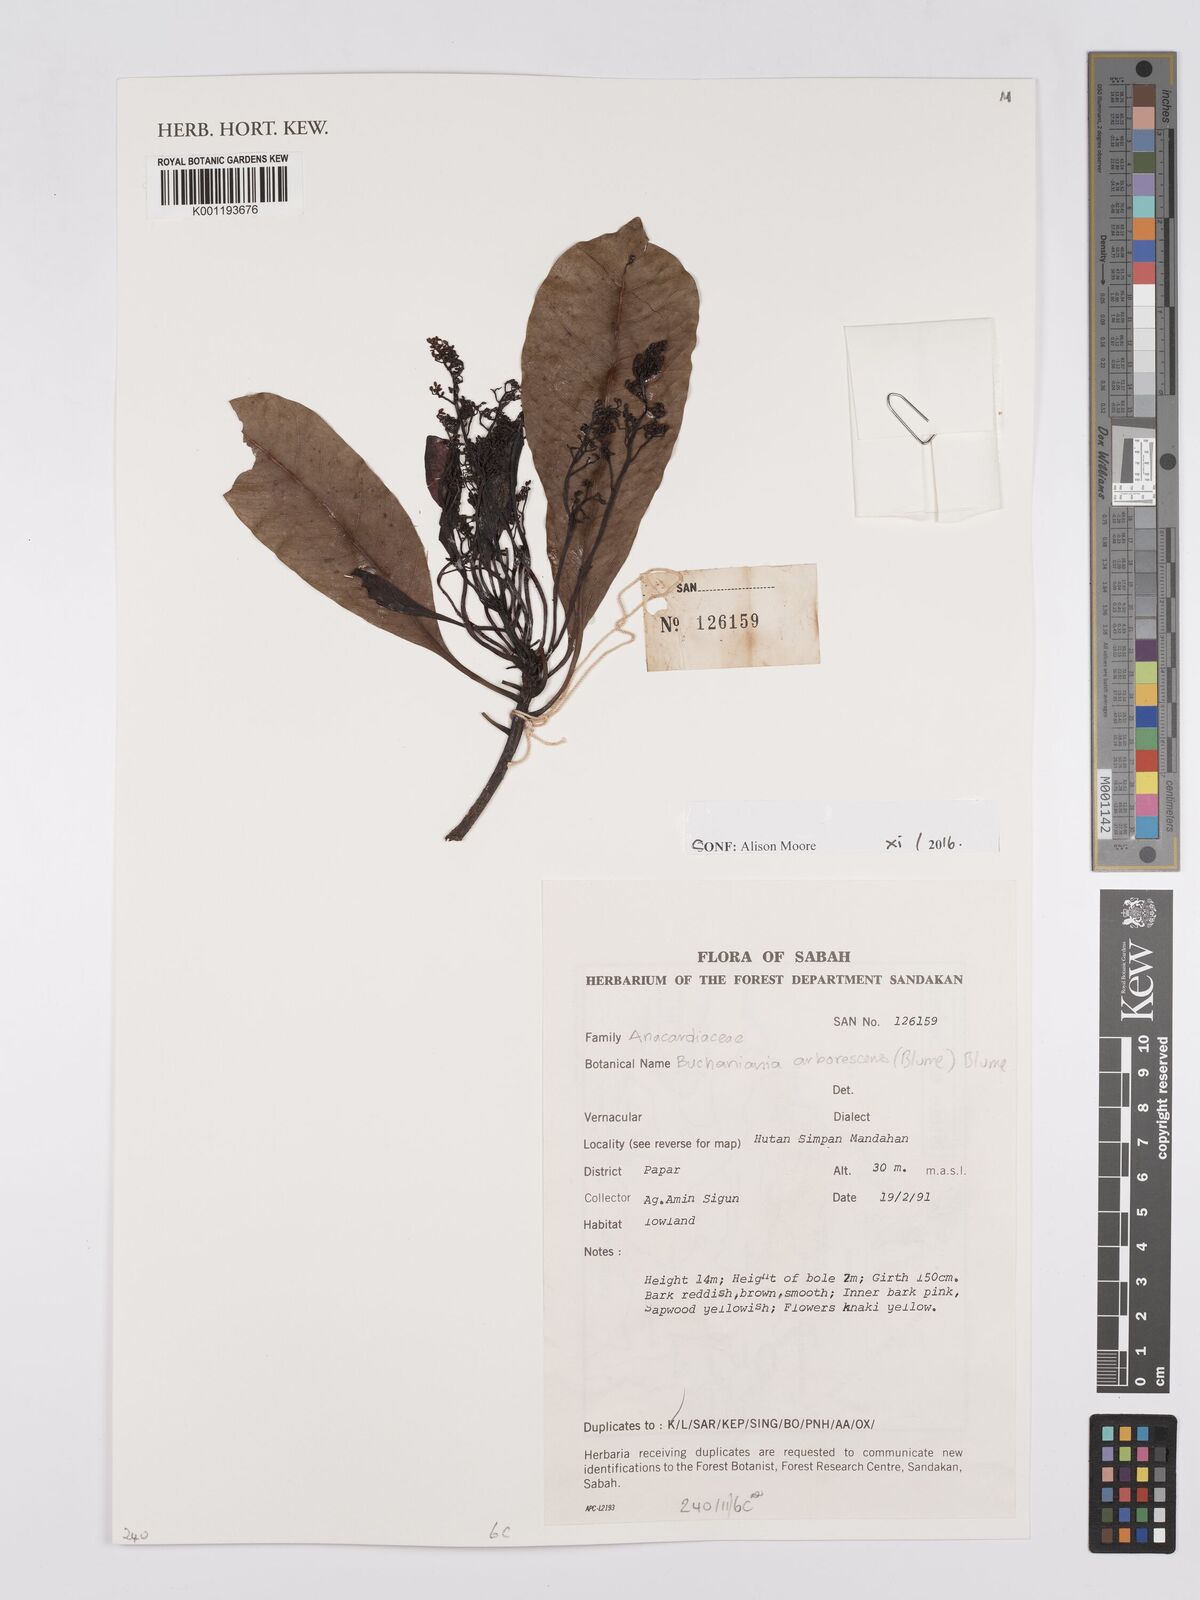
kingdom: Plantae
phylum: Tracheophyta
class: Magnoliopsida
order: Sapindales
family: Anacardiaceae
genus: Buchanania
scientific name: Buchanania arborescens
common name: Sparrow’s mango
